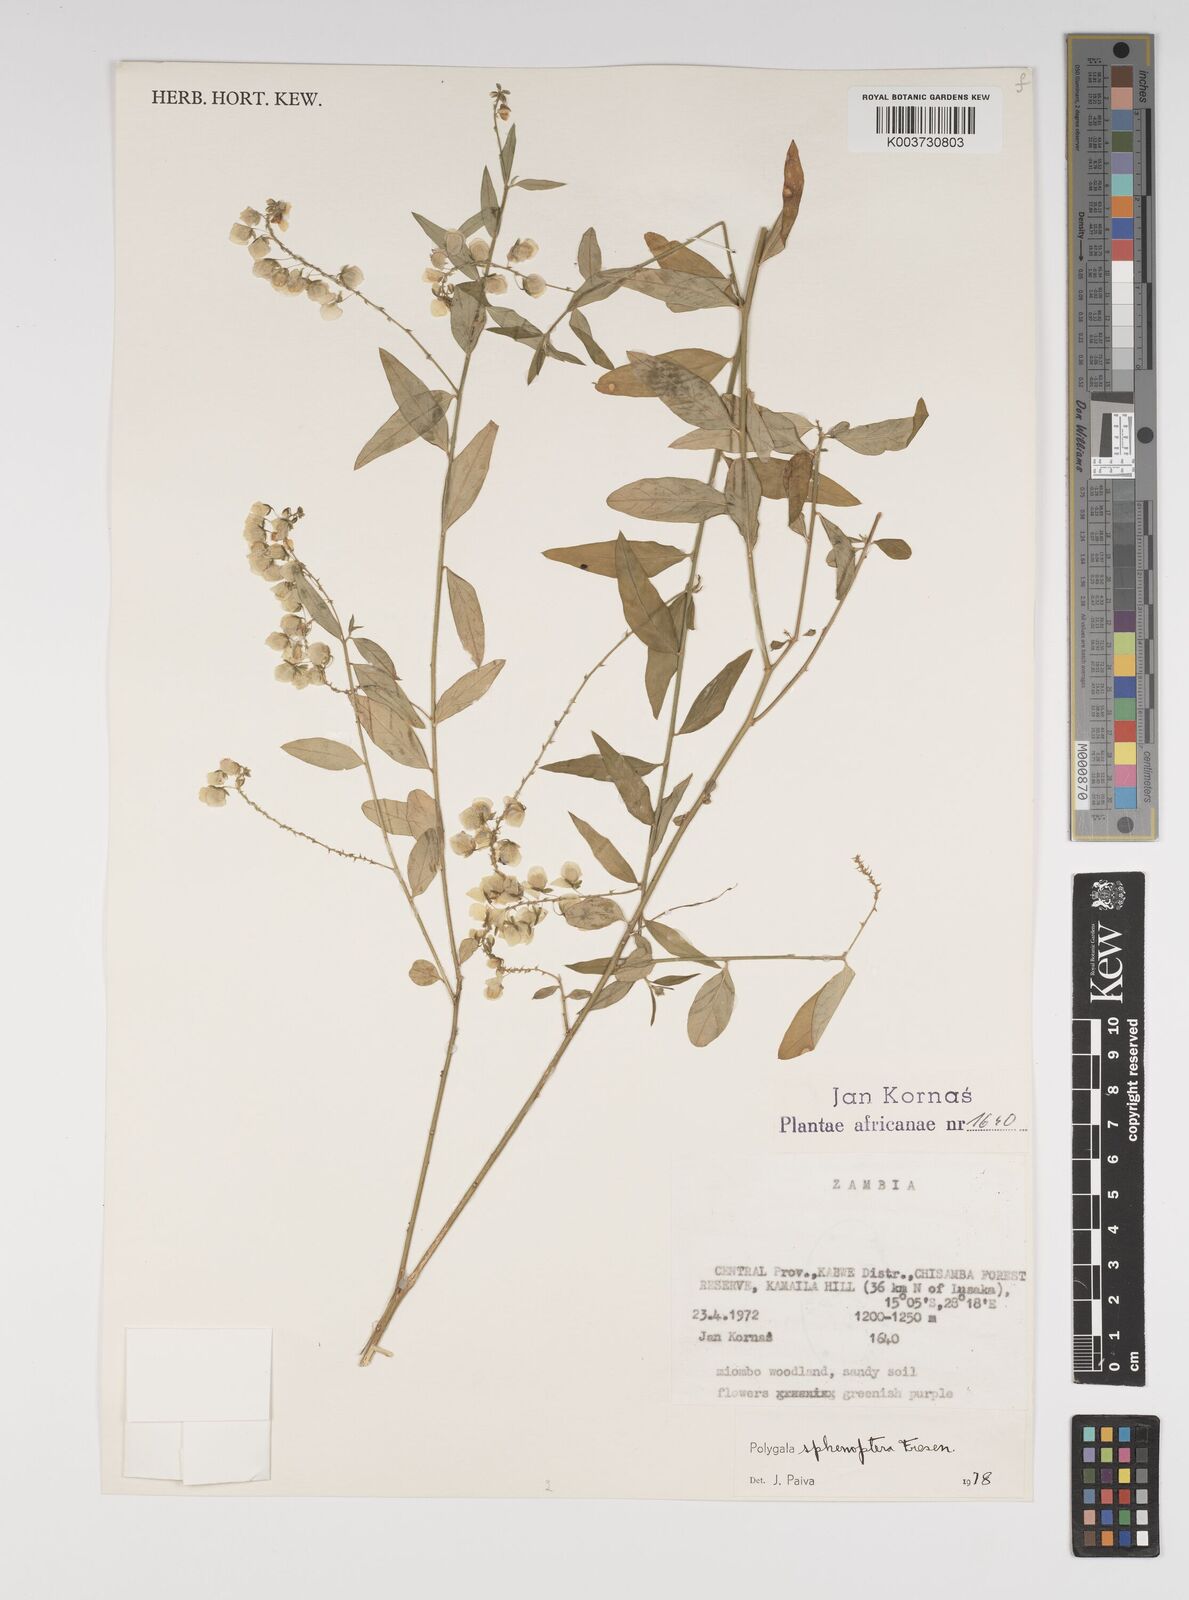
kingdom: Plantae
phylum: Tracheophyta
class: Magnoliopsida
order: Fabales
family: Polygalaceae
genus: Polygala
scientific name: Polygala sphenoptera
